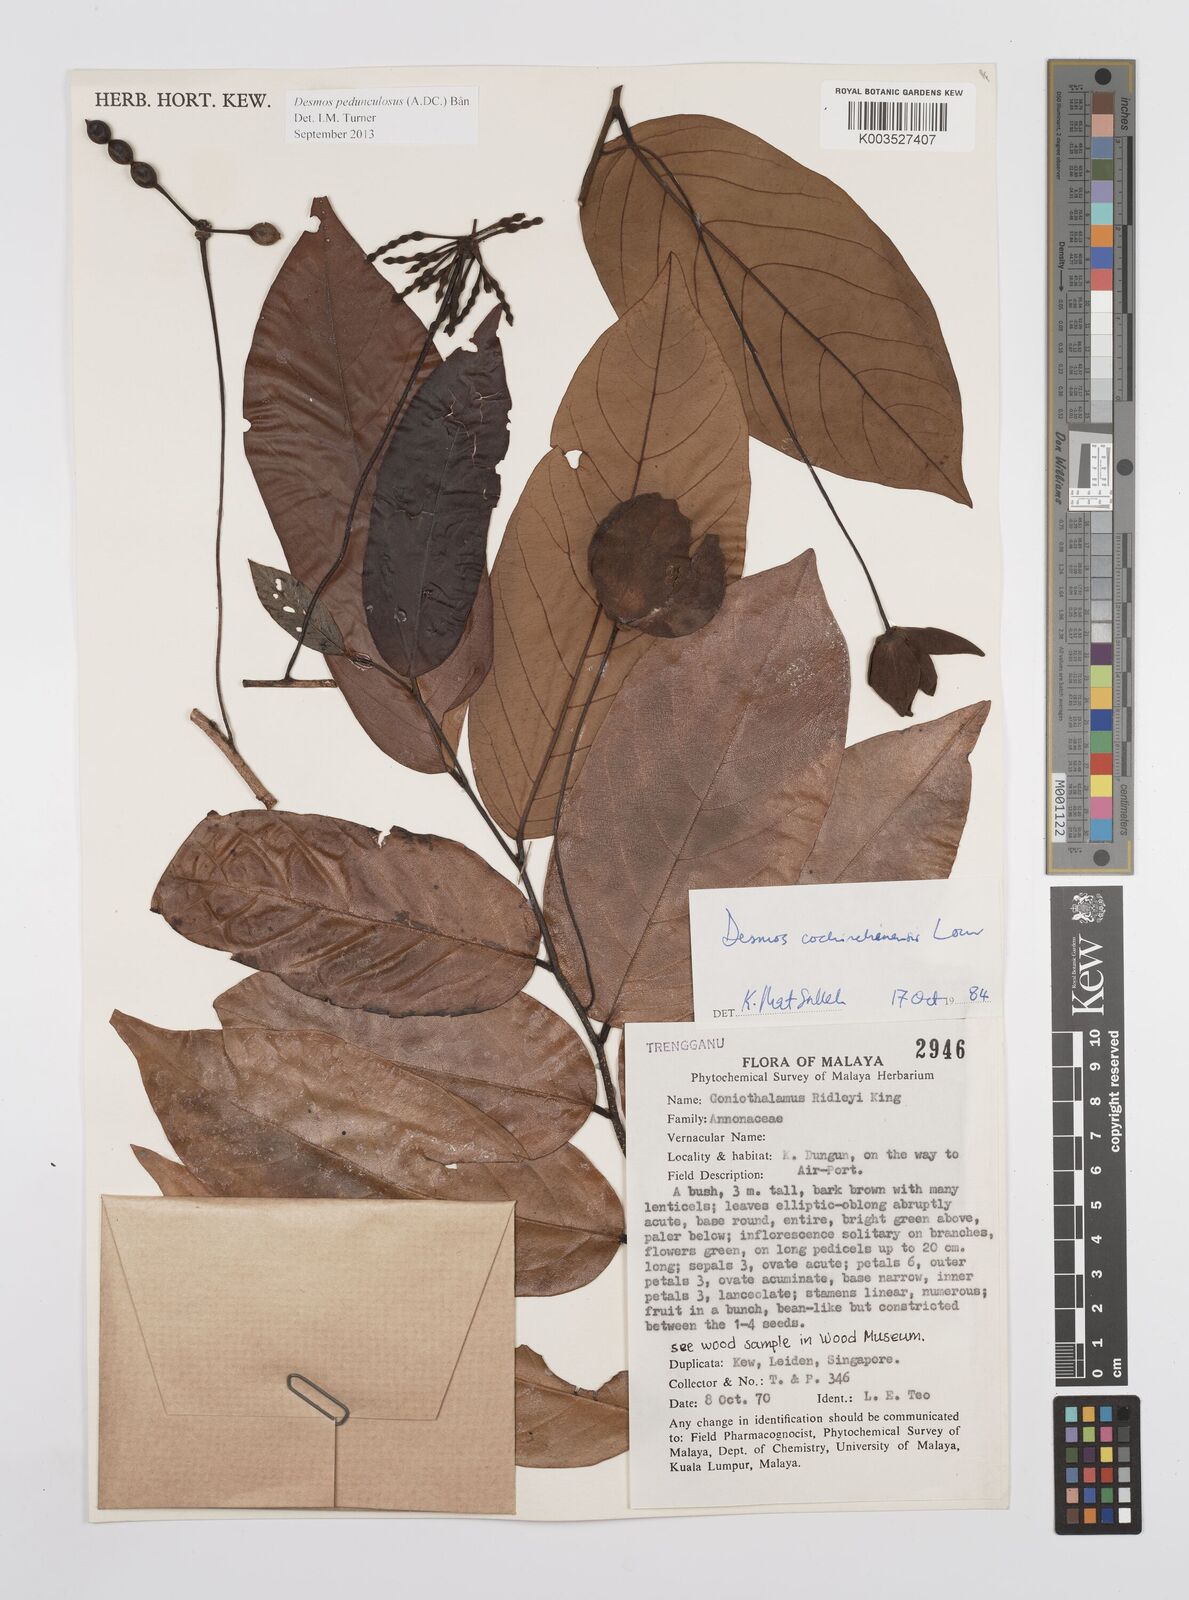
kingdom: Plantae
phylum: Tracheophyta
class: Magnoliopsida
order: Magnoliales
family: Annonaceae
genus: Desmos
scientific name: Desmos cochinchinensis
